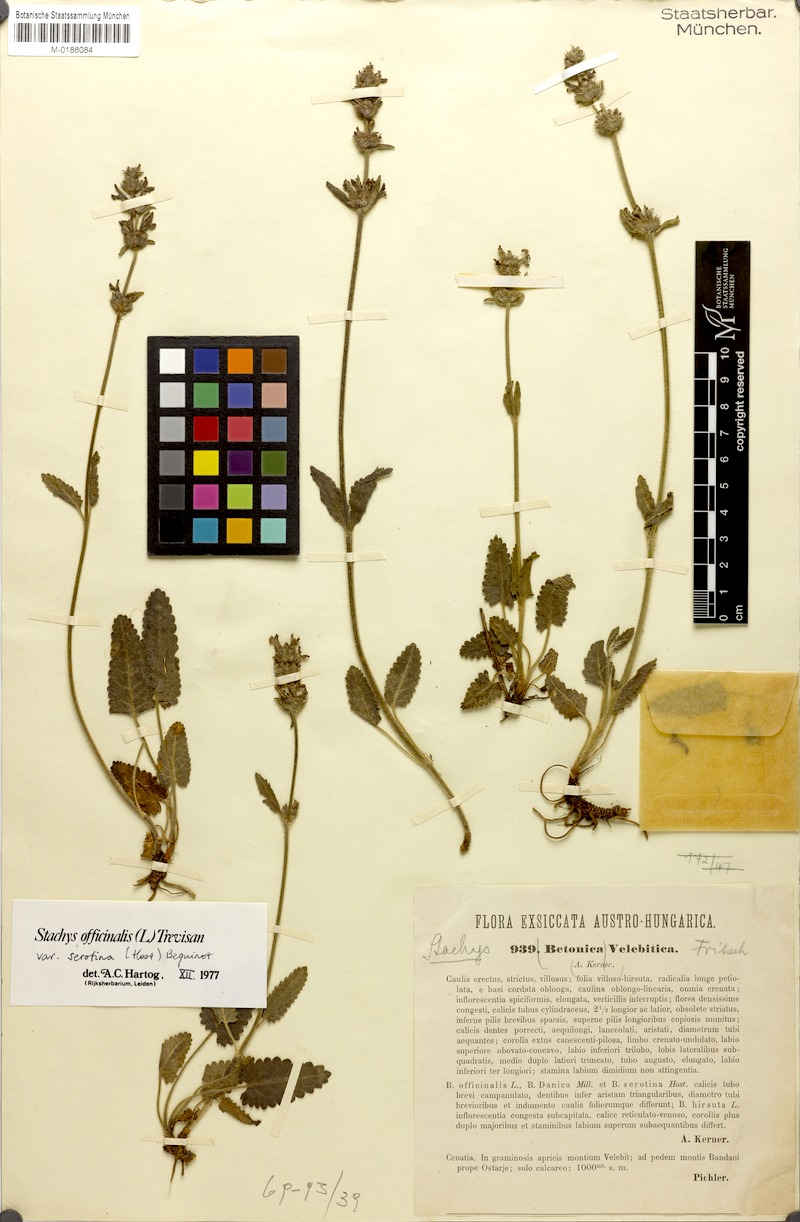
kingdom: Plantae
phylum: Tracheophyta
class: Magnoliopsida
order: Lamiales
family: Lamiaceae
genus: Betonica
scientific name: Betonica officinalis
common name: Bishop's-wort
